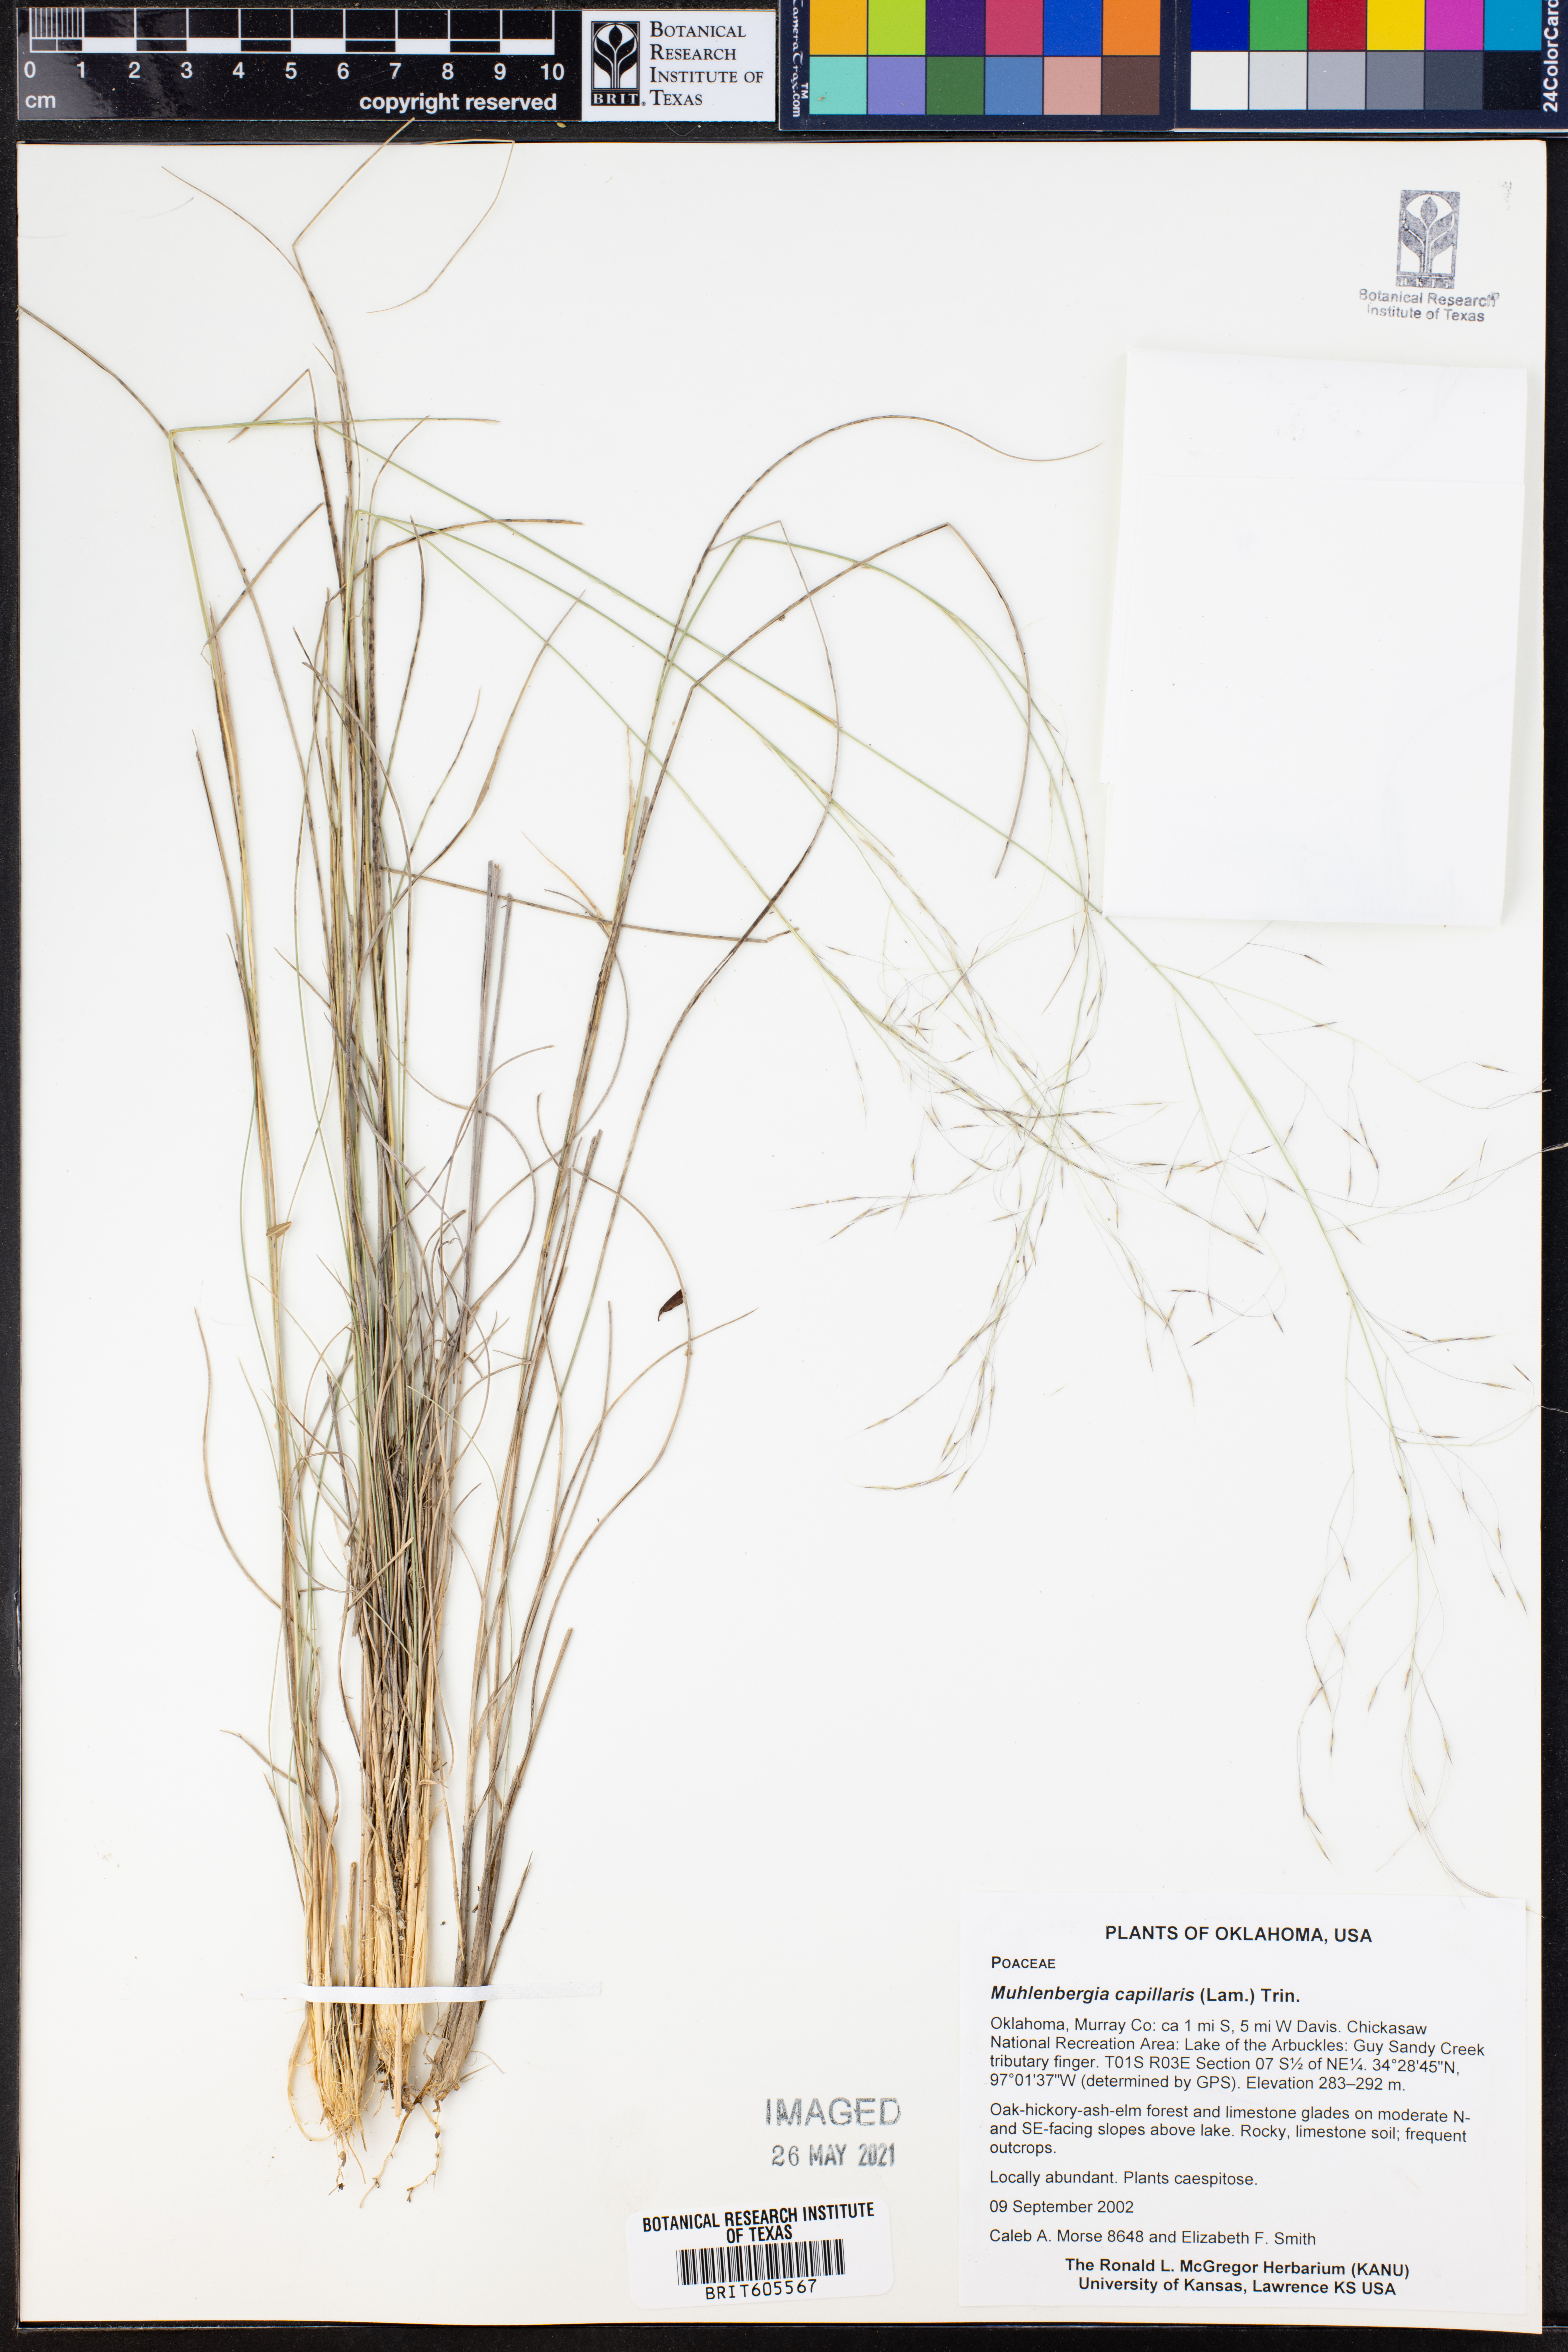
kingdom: Plantae
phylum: Tracheophyta
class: Liliopsida
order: Poales
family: Poaceae
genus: Muhlenbergia
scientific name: Muhlenbergia capillaris
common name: Purple grass
